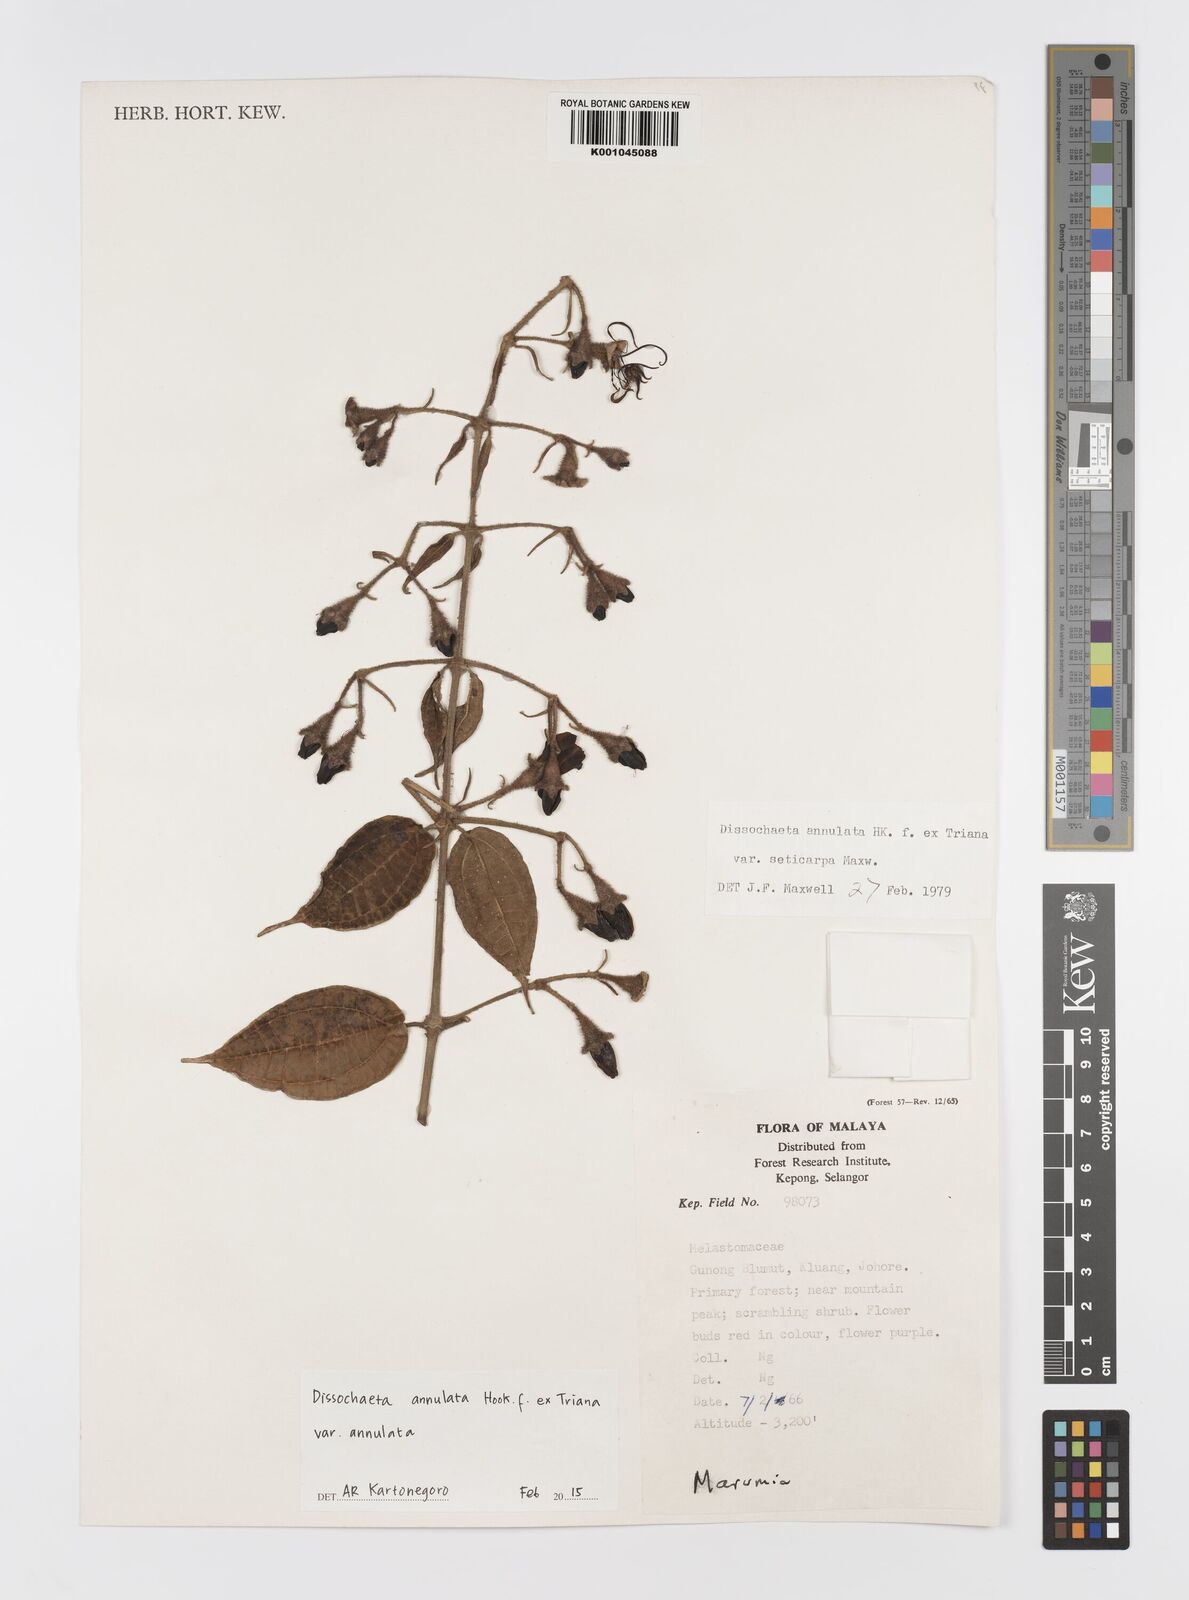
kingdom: Plantae
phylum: Tracheophyta
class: Magnoliopsida
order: Myrtales
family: Melastomataceae
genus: Dissochaeta
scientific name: Dissochaeta annulata
